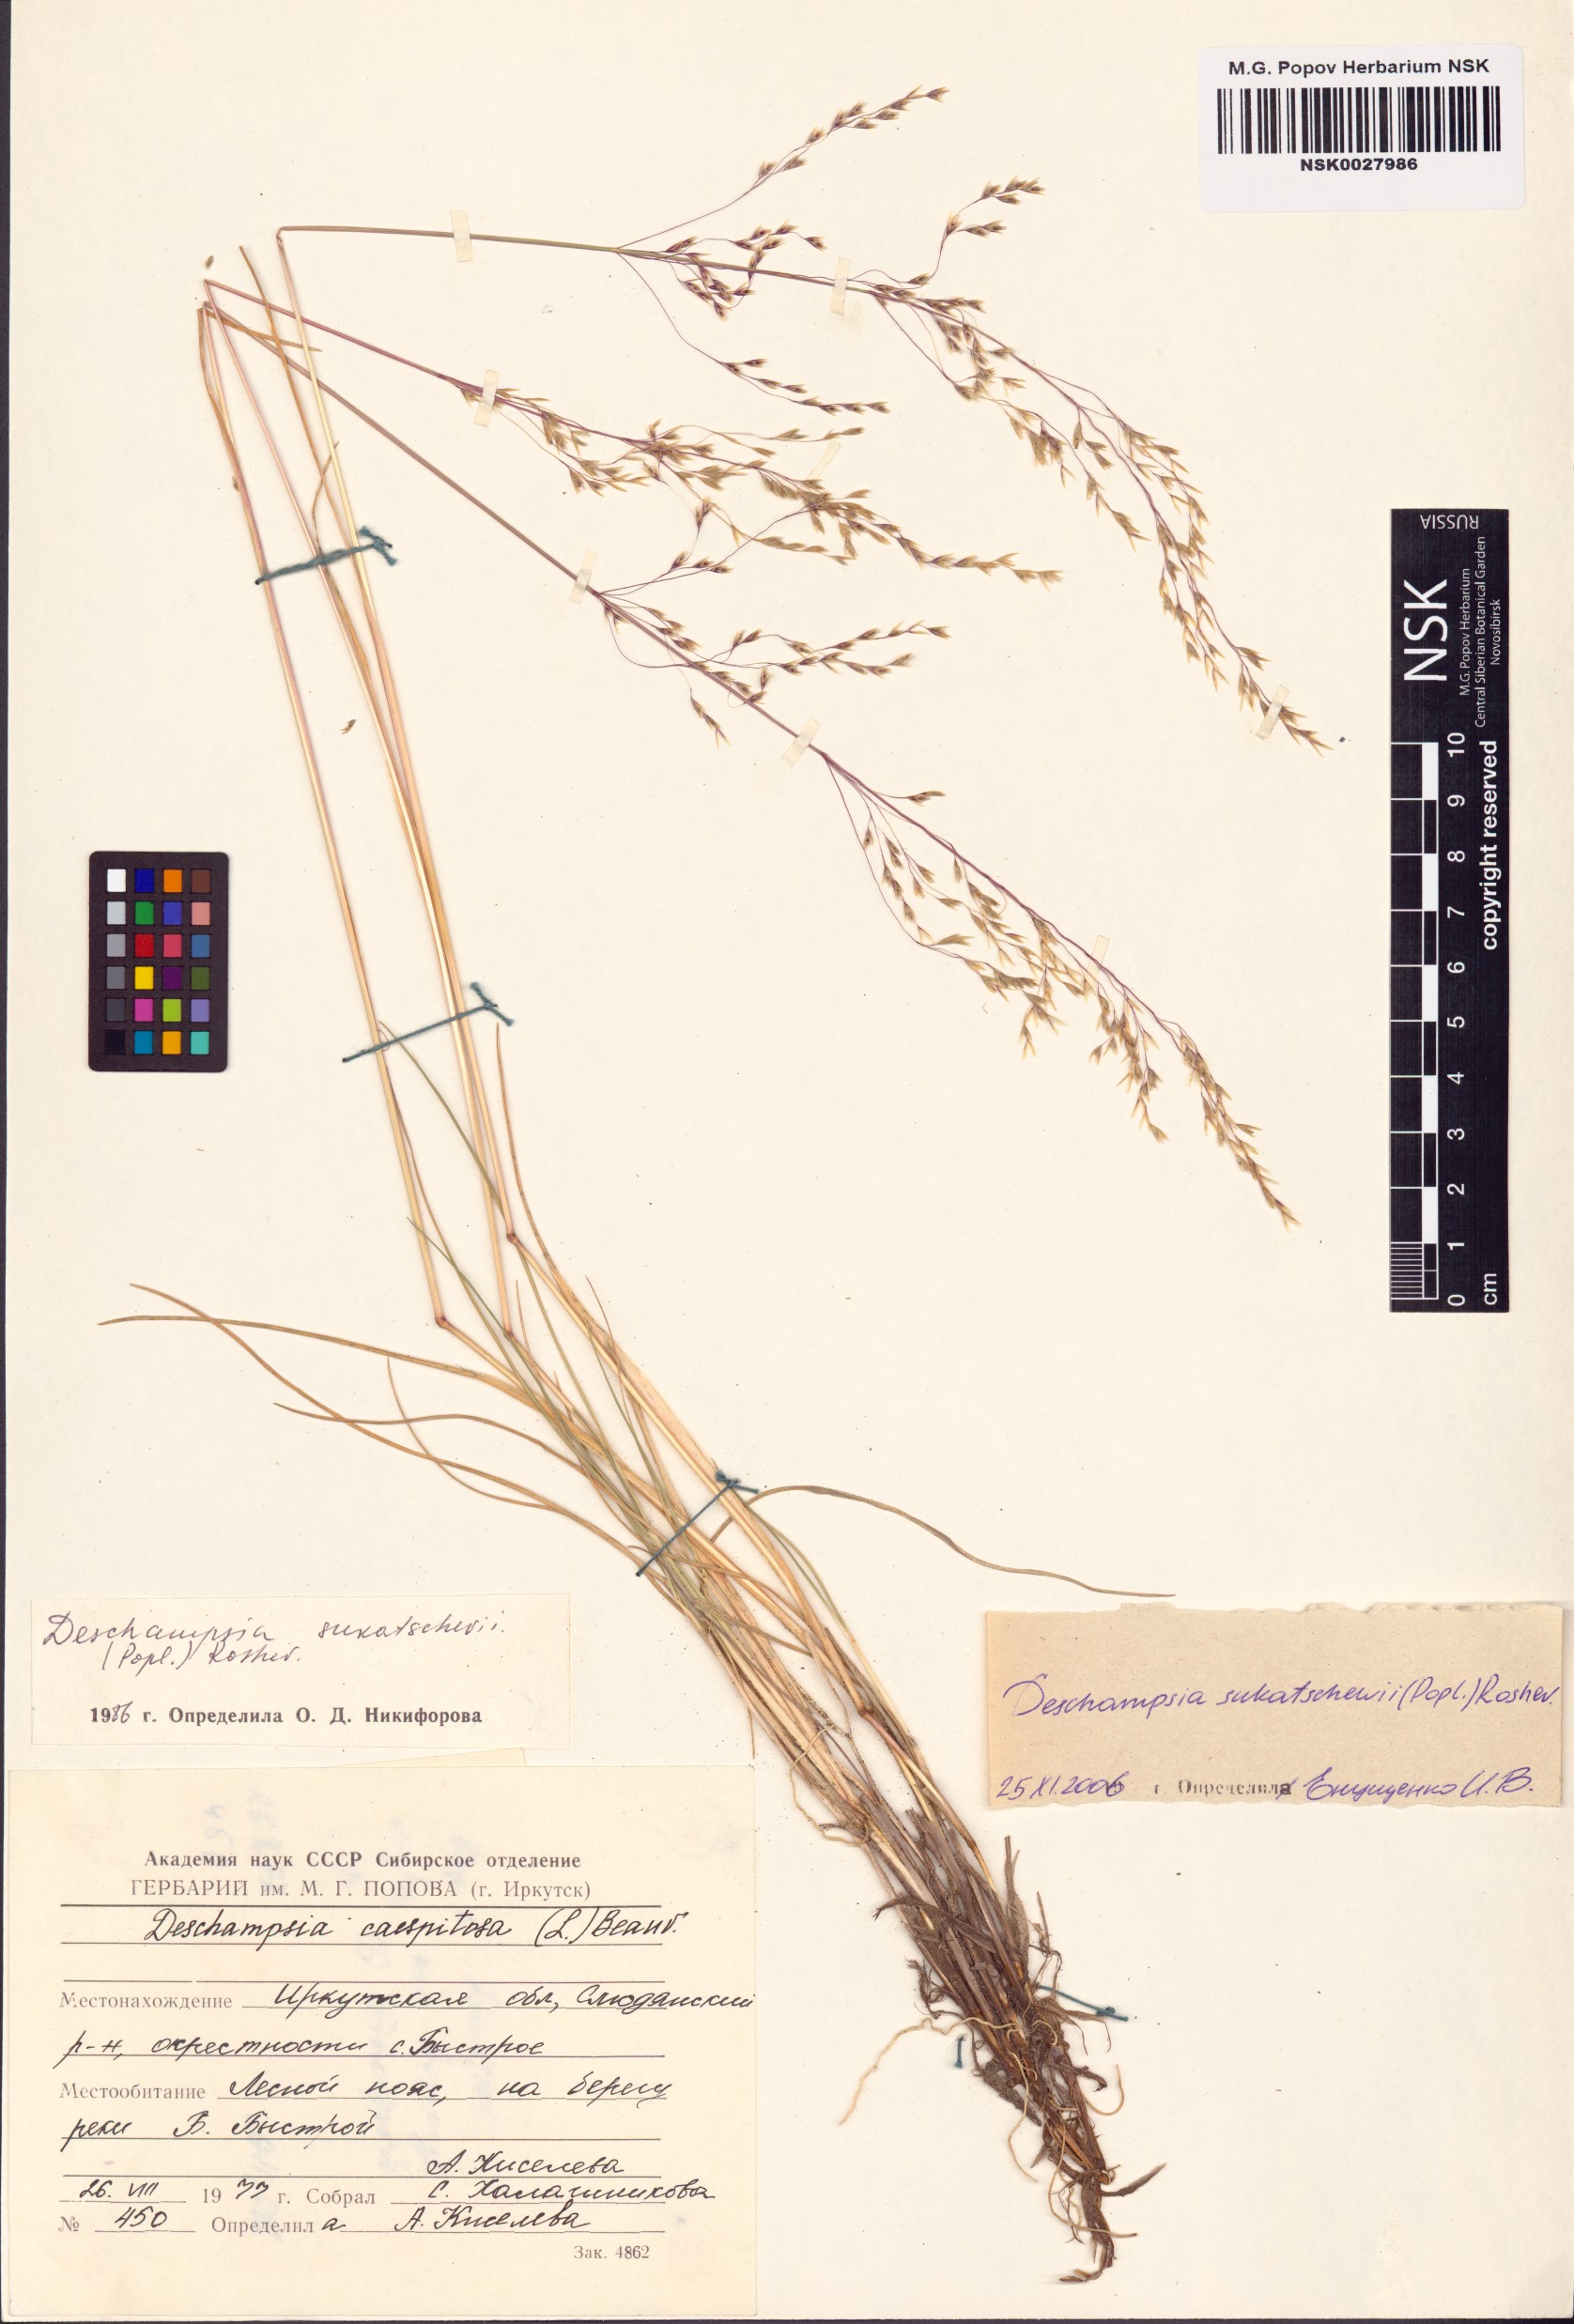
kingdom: Plantae
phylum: Tracheophyta
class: Liliopsida
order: Poales
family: Poaceae
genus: Deschampsia
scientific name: Deschampsia cespitosa
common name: Tufted hair-grass
